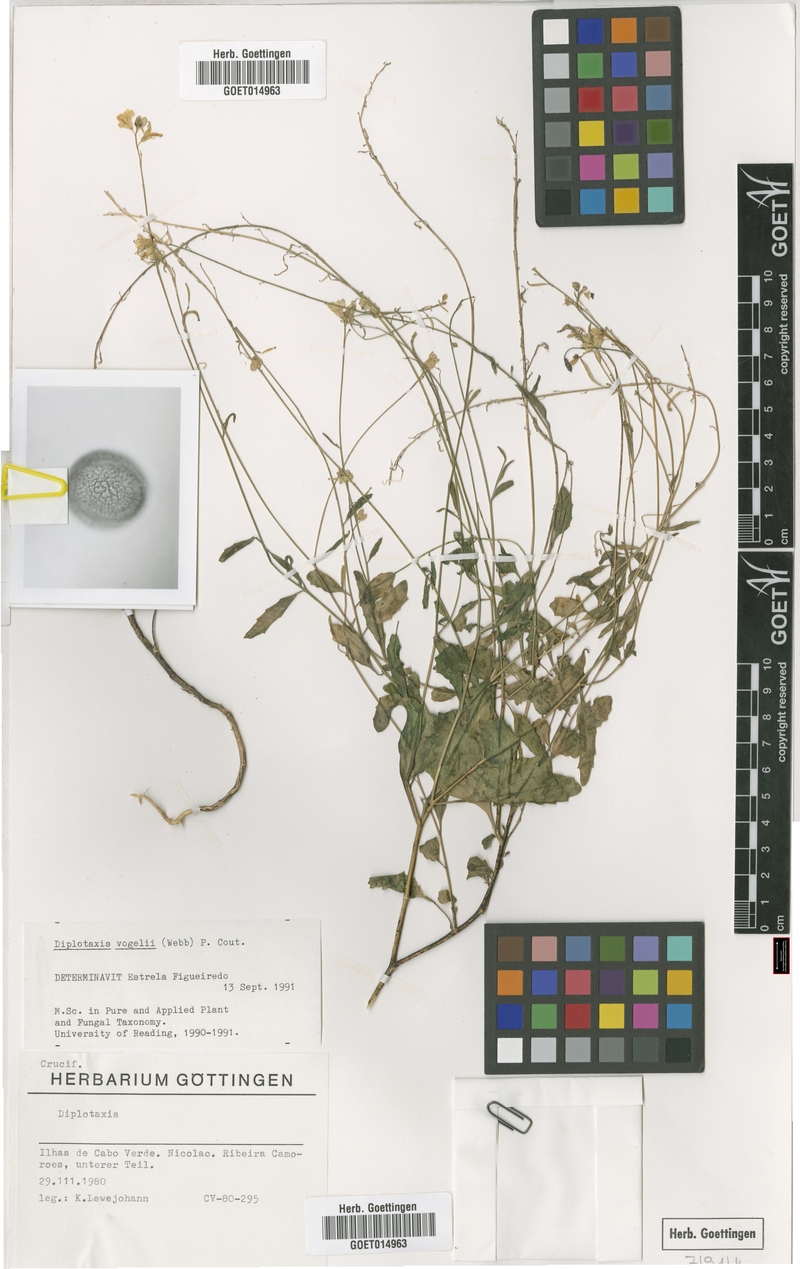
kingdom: Plantae
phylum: Tracheophyta
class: Magnoliopsida
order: Brassicales
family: Brassicaceae
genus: Diplotaxis
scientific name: Diplotaxis vogelii
